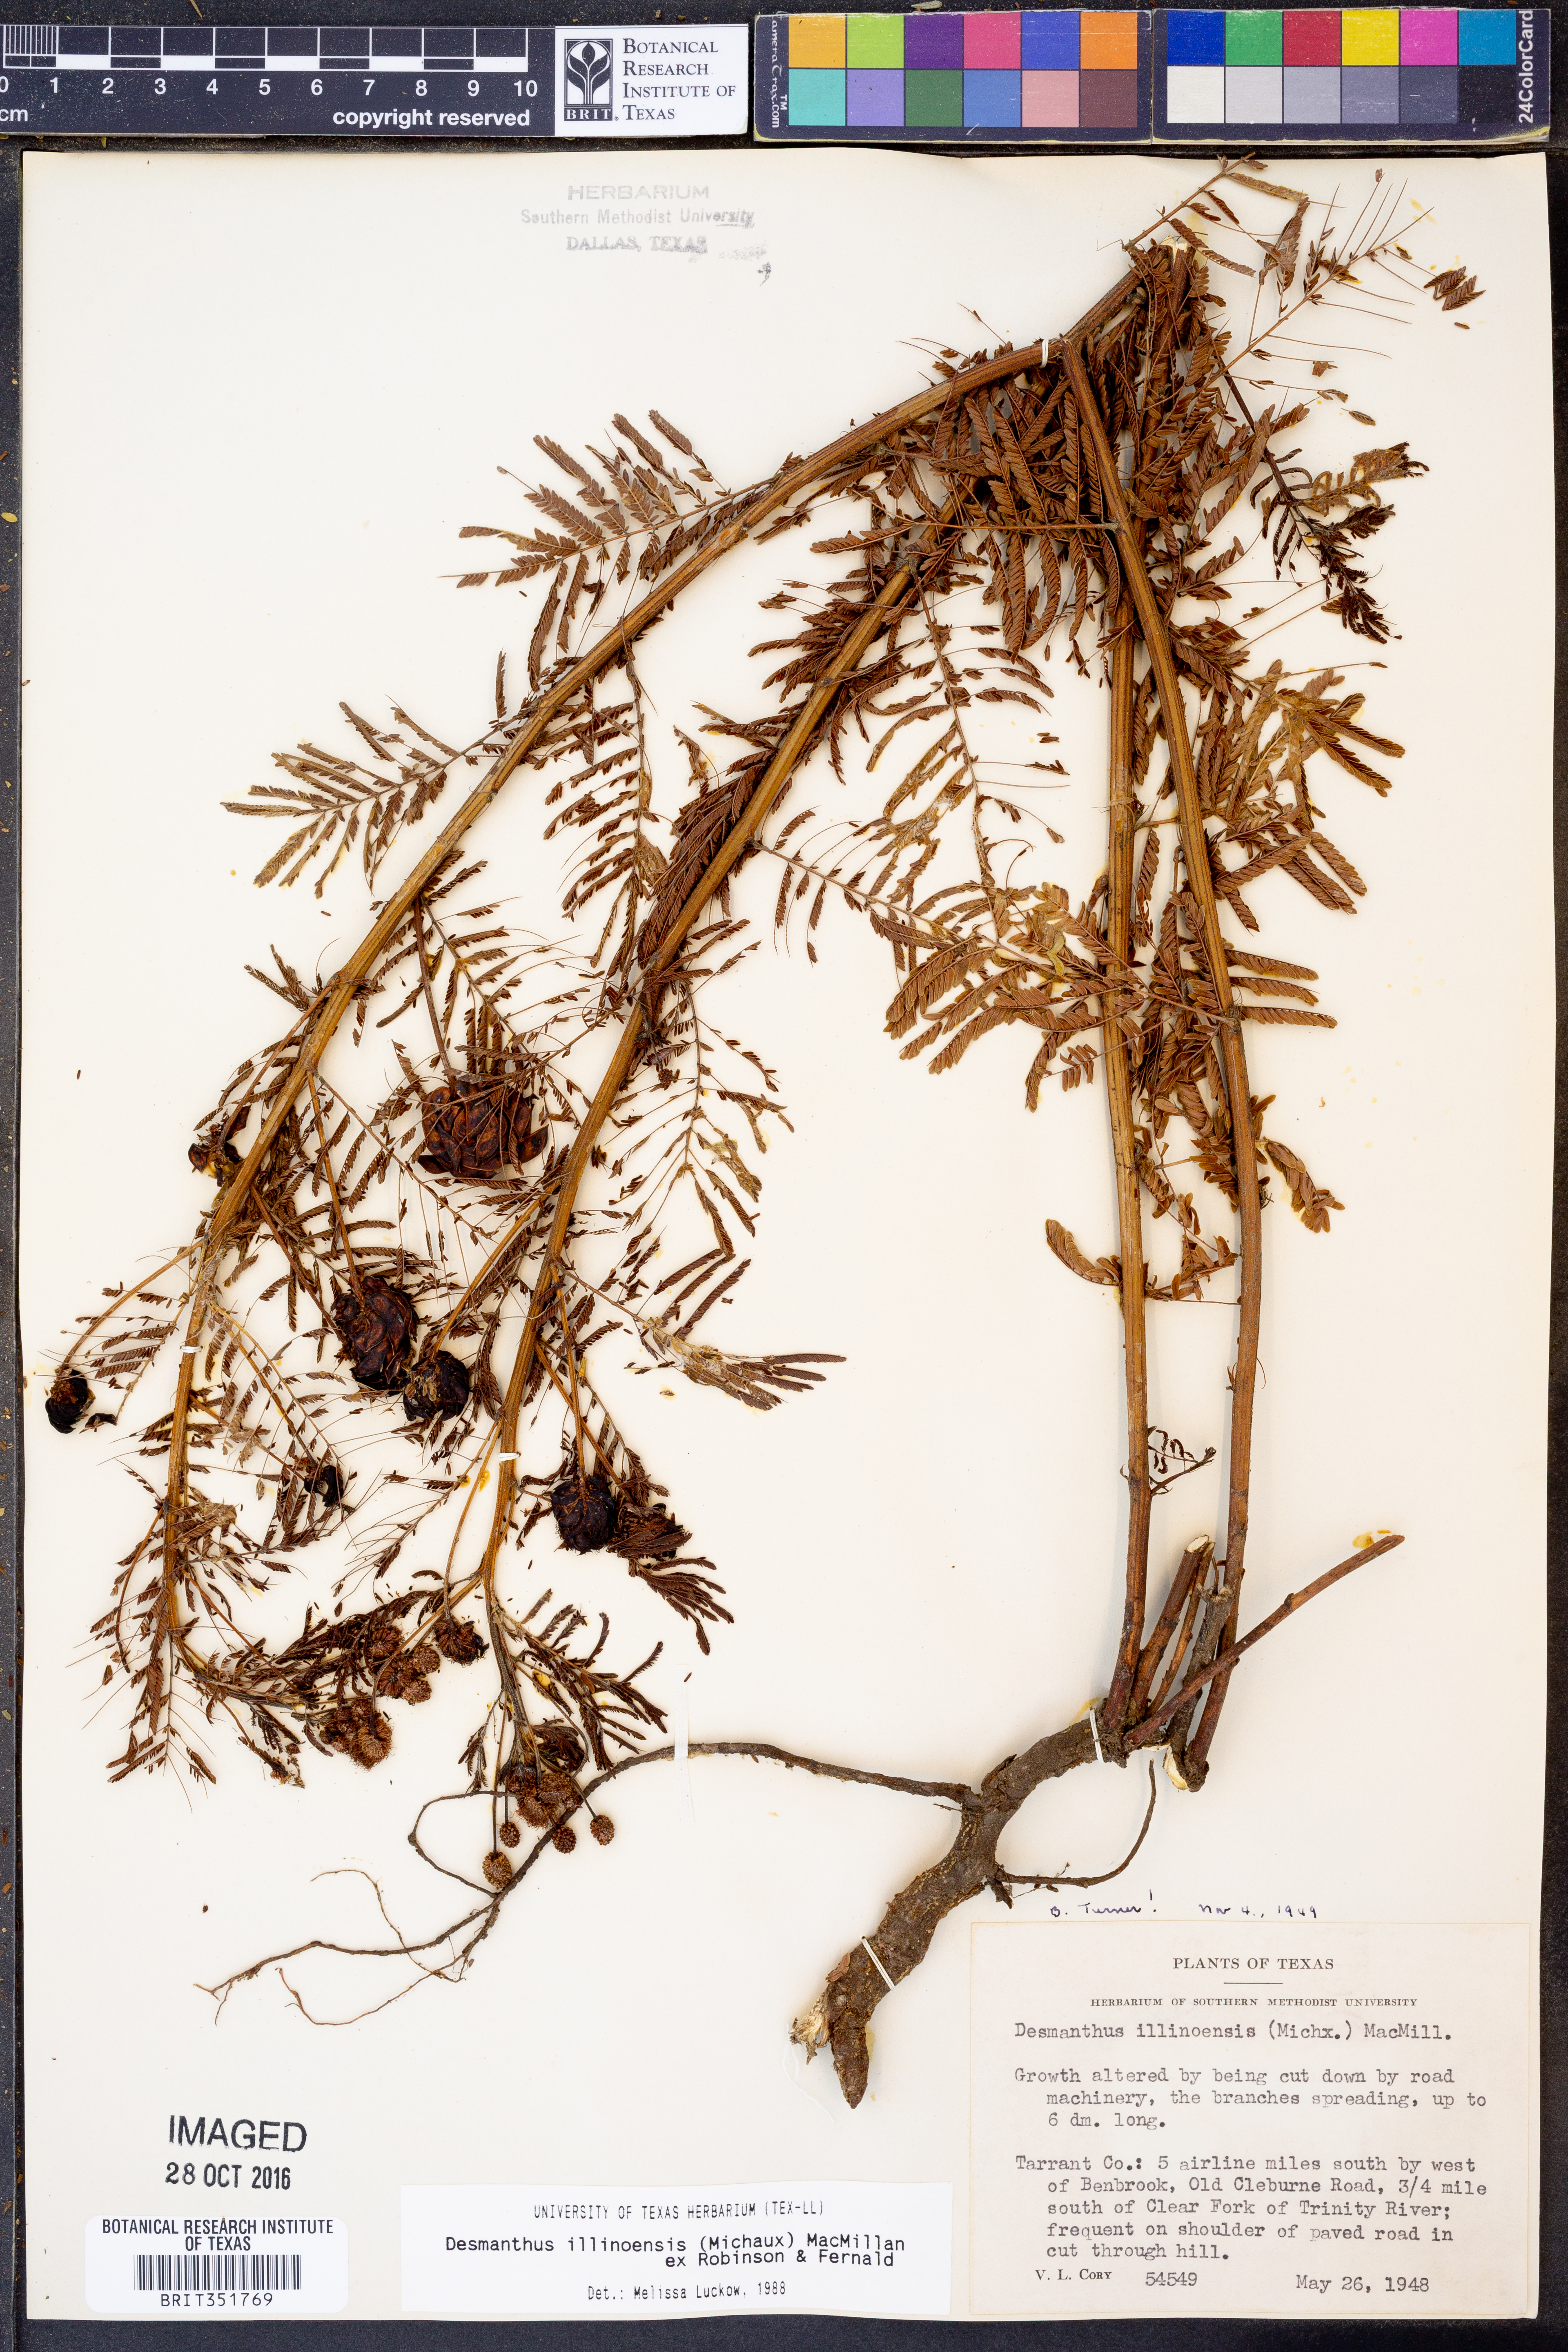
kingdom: Plantae
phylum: Tracheophyta
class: Magnoliopsida
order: Fabales
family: Fabaceae
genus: Desmanthus
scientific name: Desmanthus illinoensis
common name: Illinois bundle-flower
